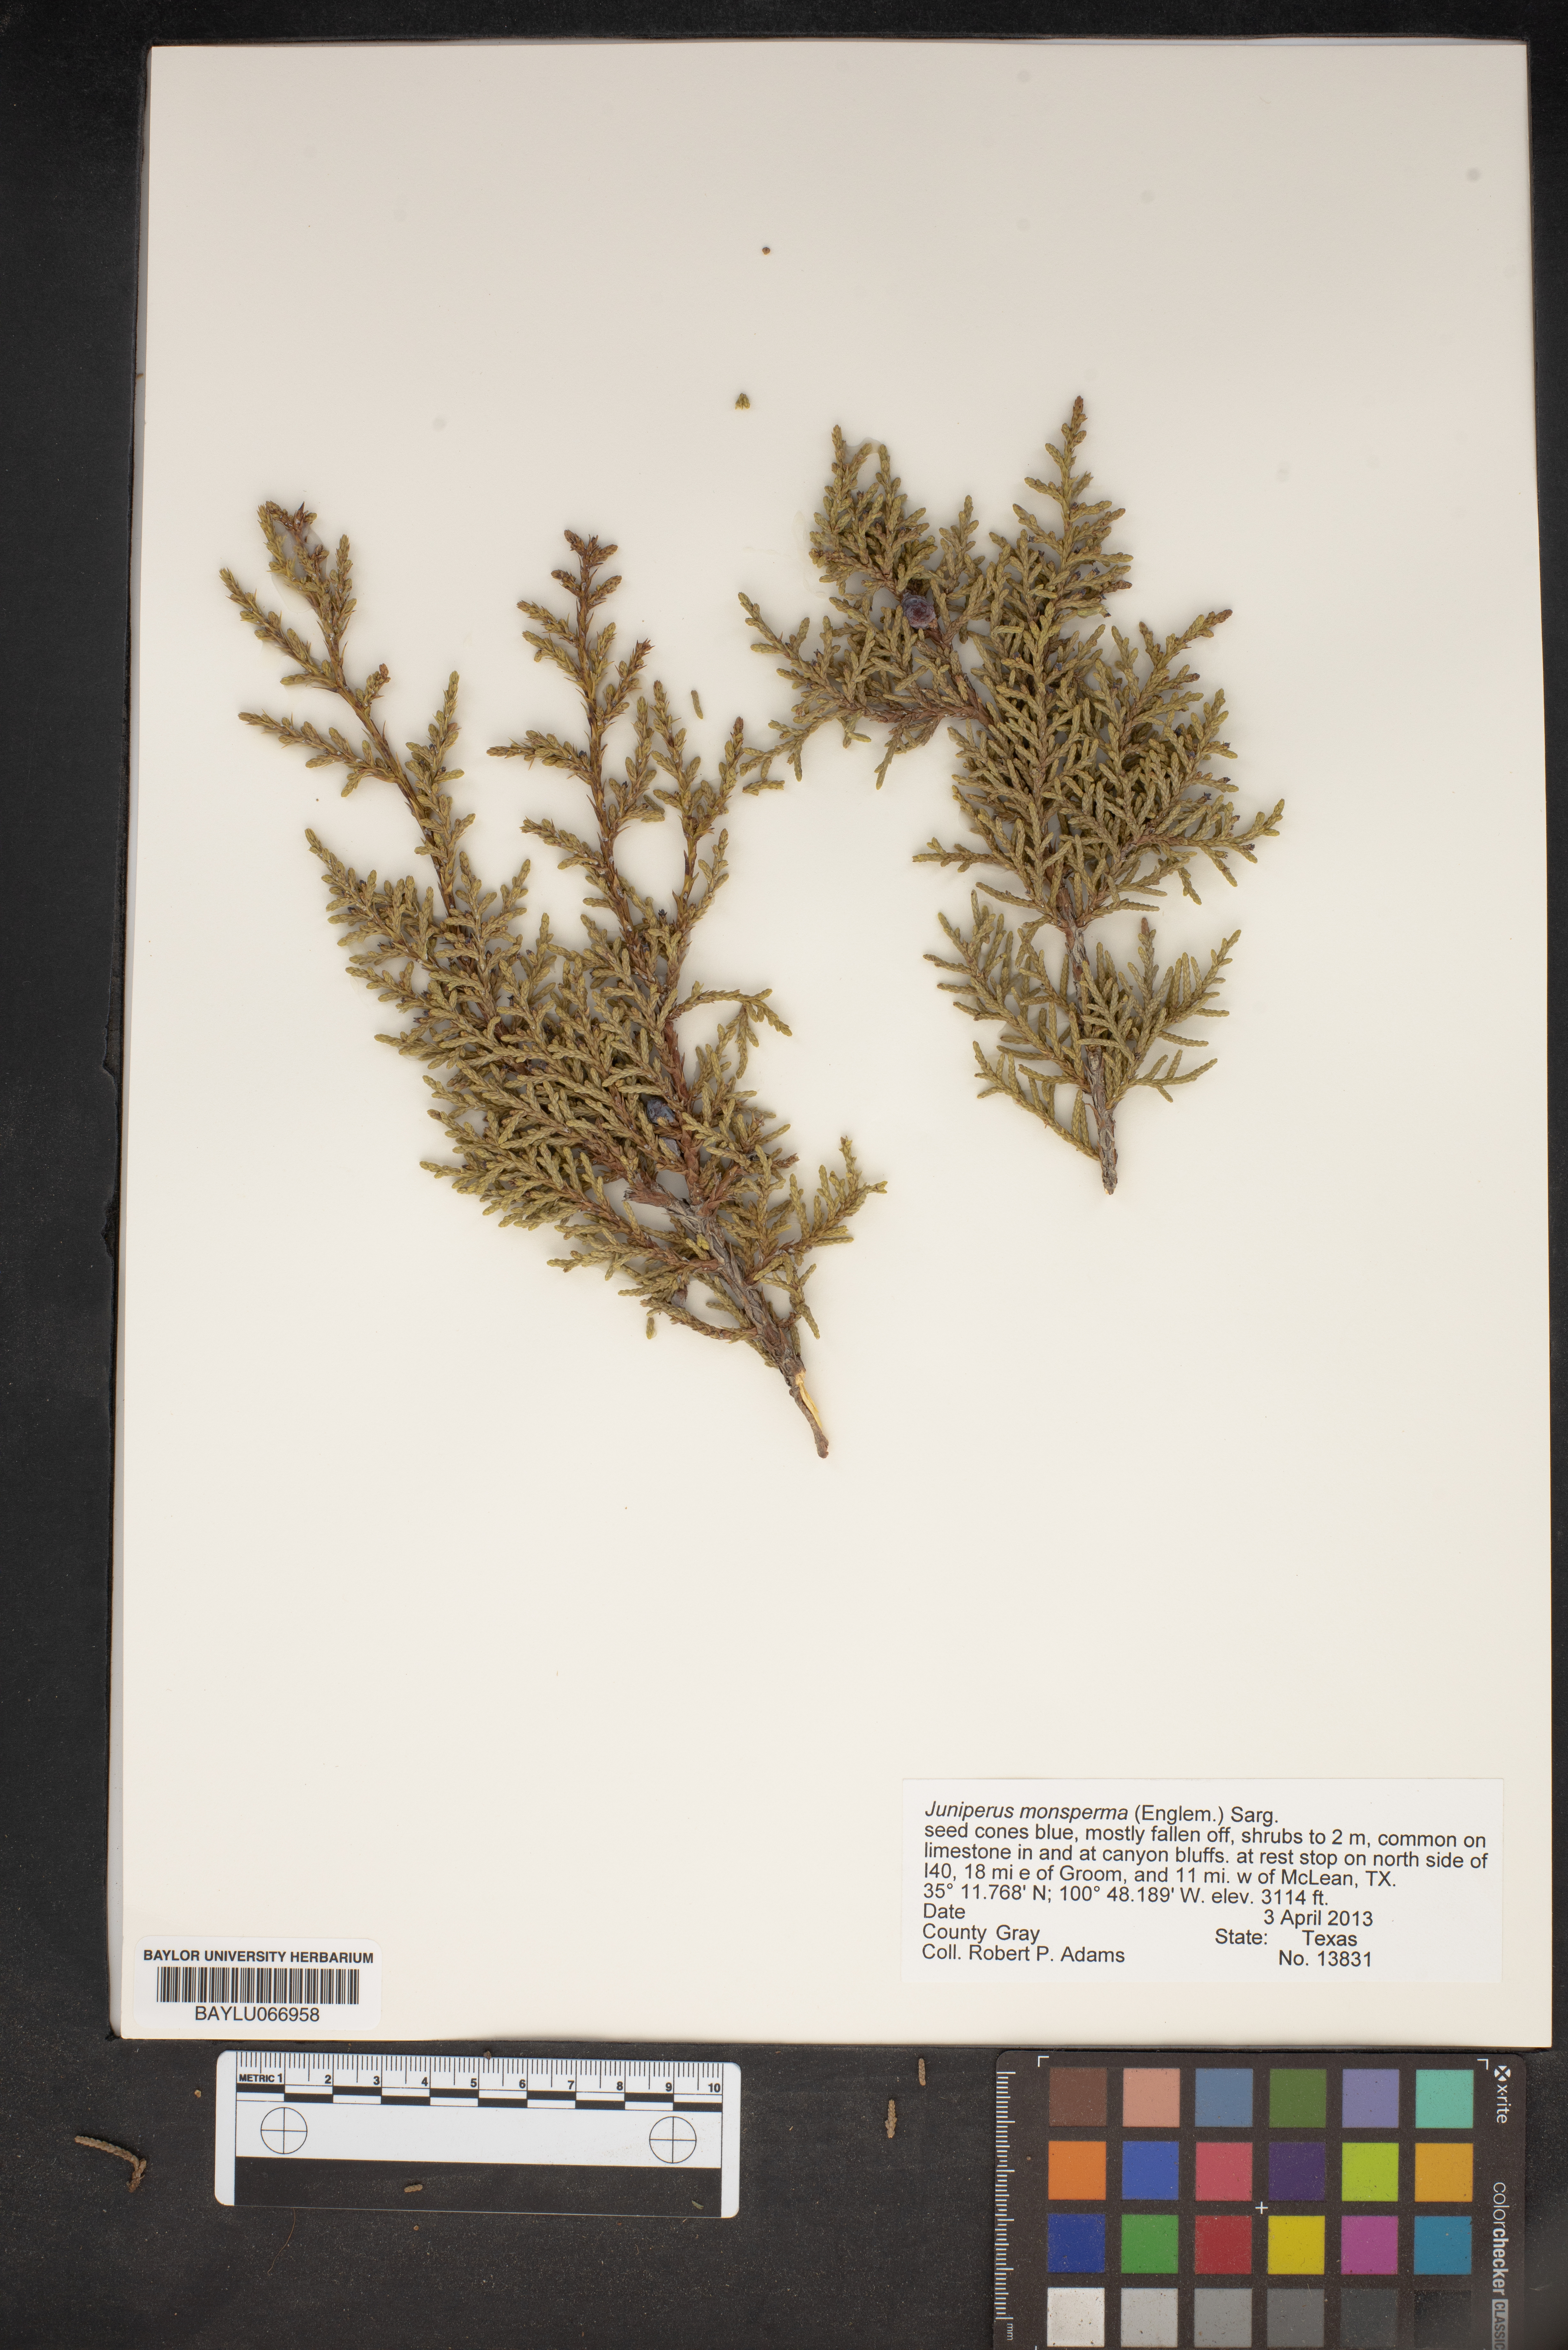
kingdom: Plantae
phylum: Tracheophyta
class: Pinopsida
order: Pinales
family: Cupressaceae
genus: Juniperus
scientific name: Juniperus monosperma
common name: One-seed juniper
